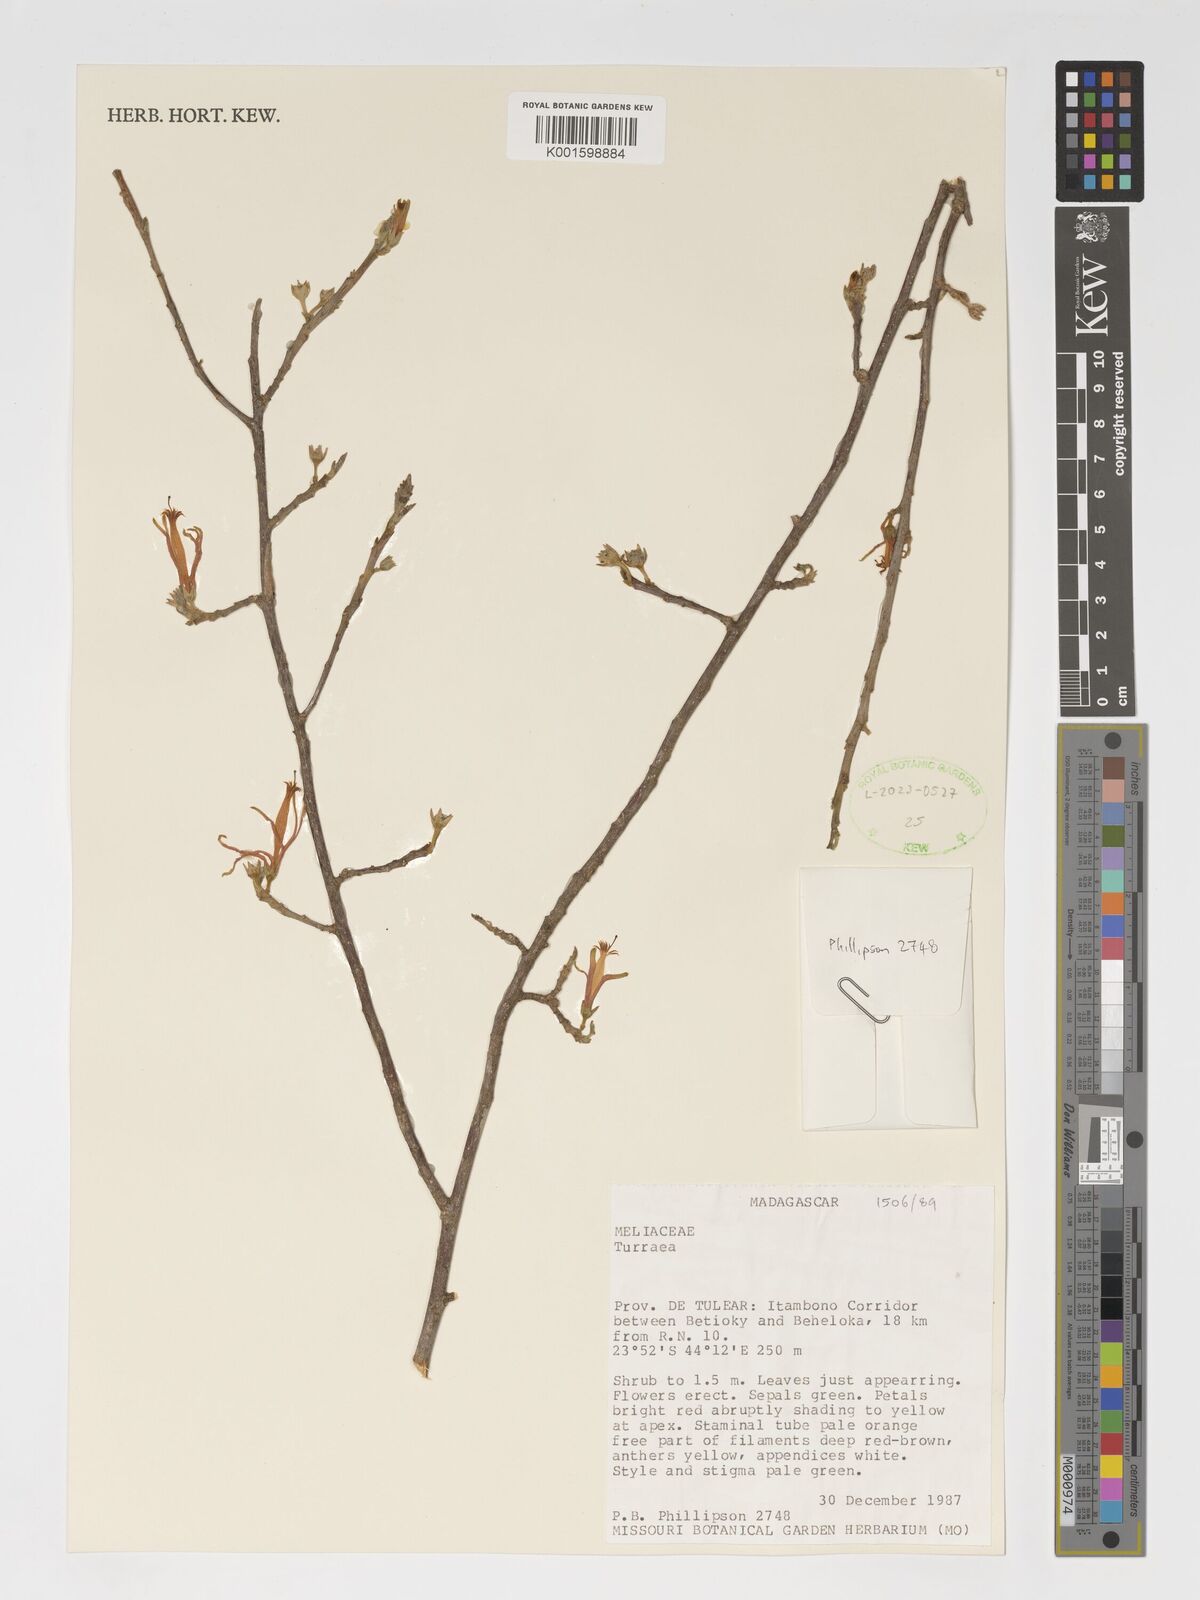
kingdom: Plantae
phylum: Tracheophyta
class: Magnoliopsida
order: Sapindales
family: Meliaceae
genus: Turraea
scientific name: Turraea
